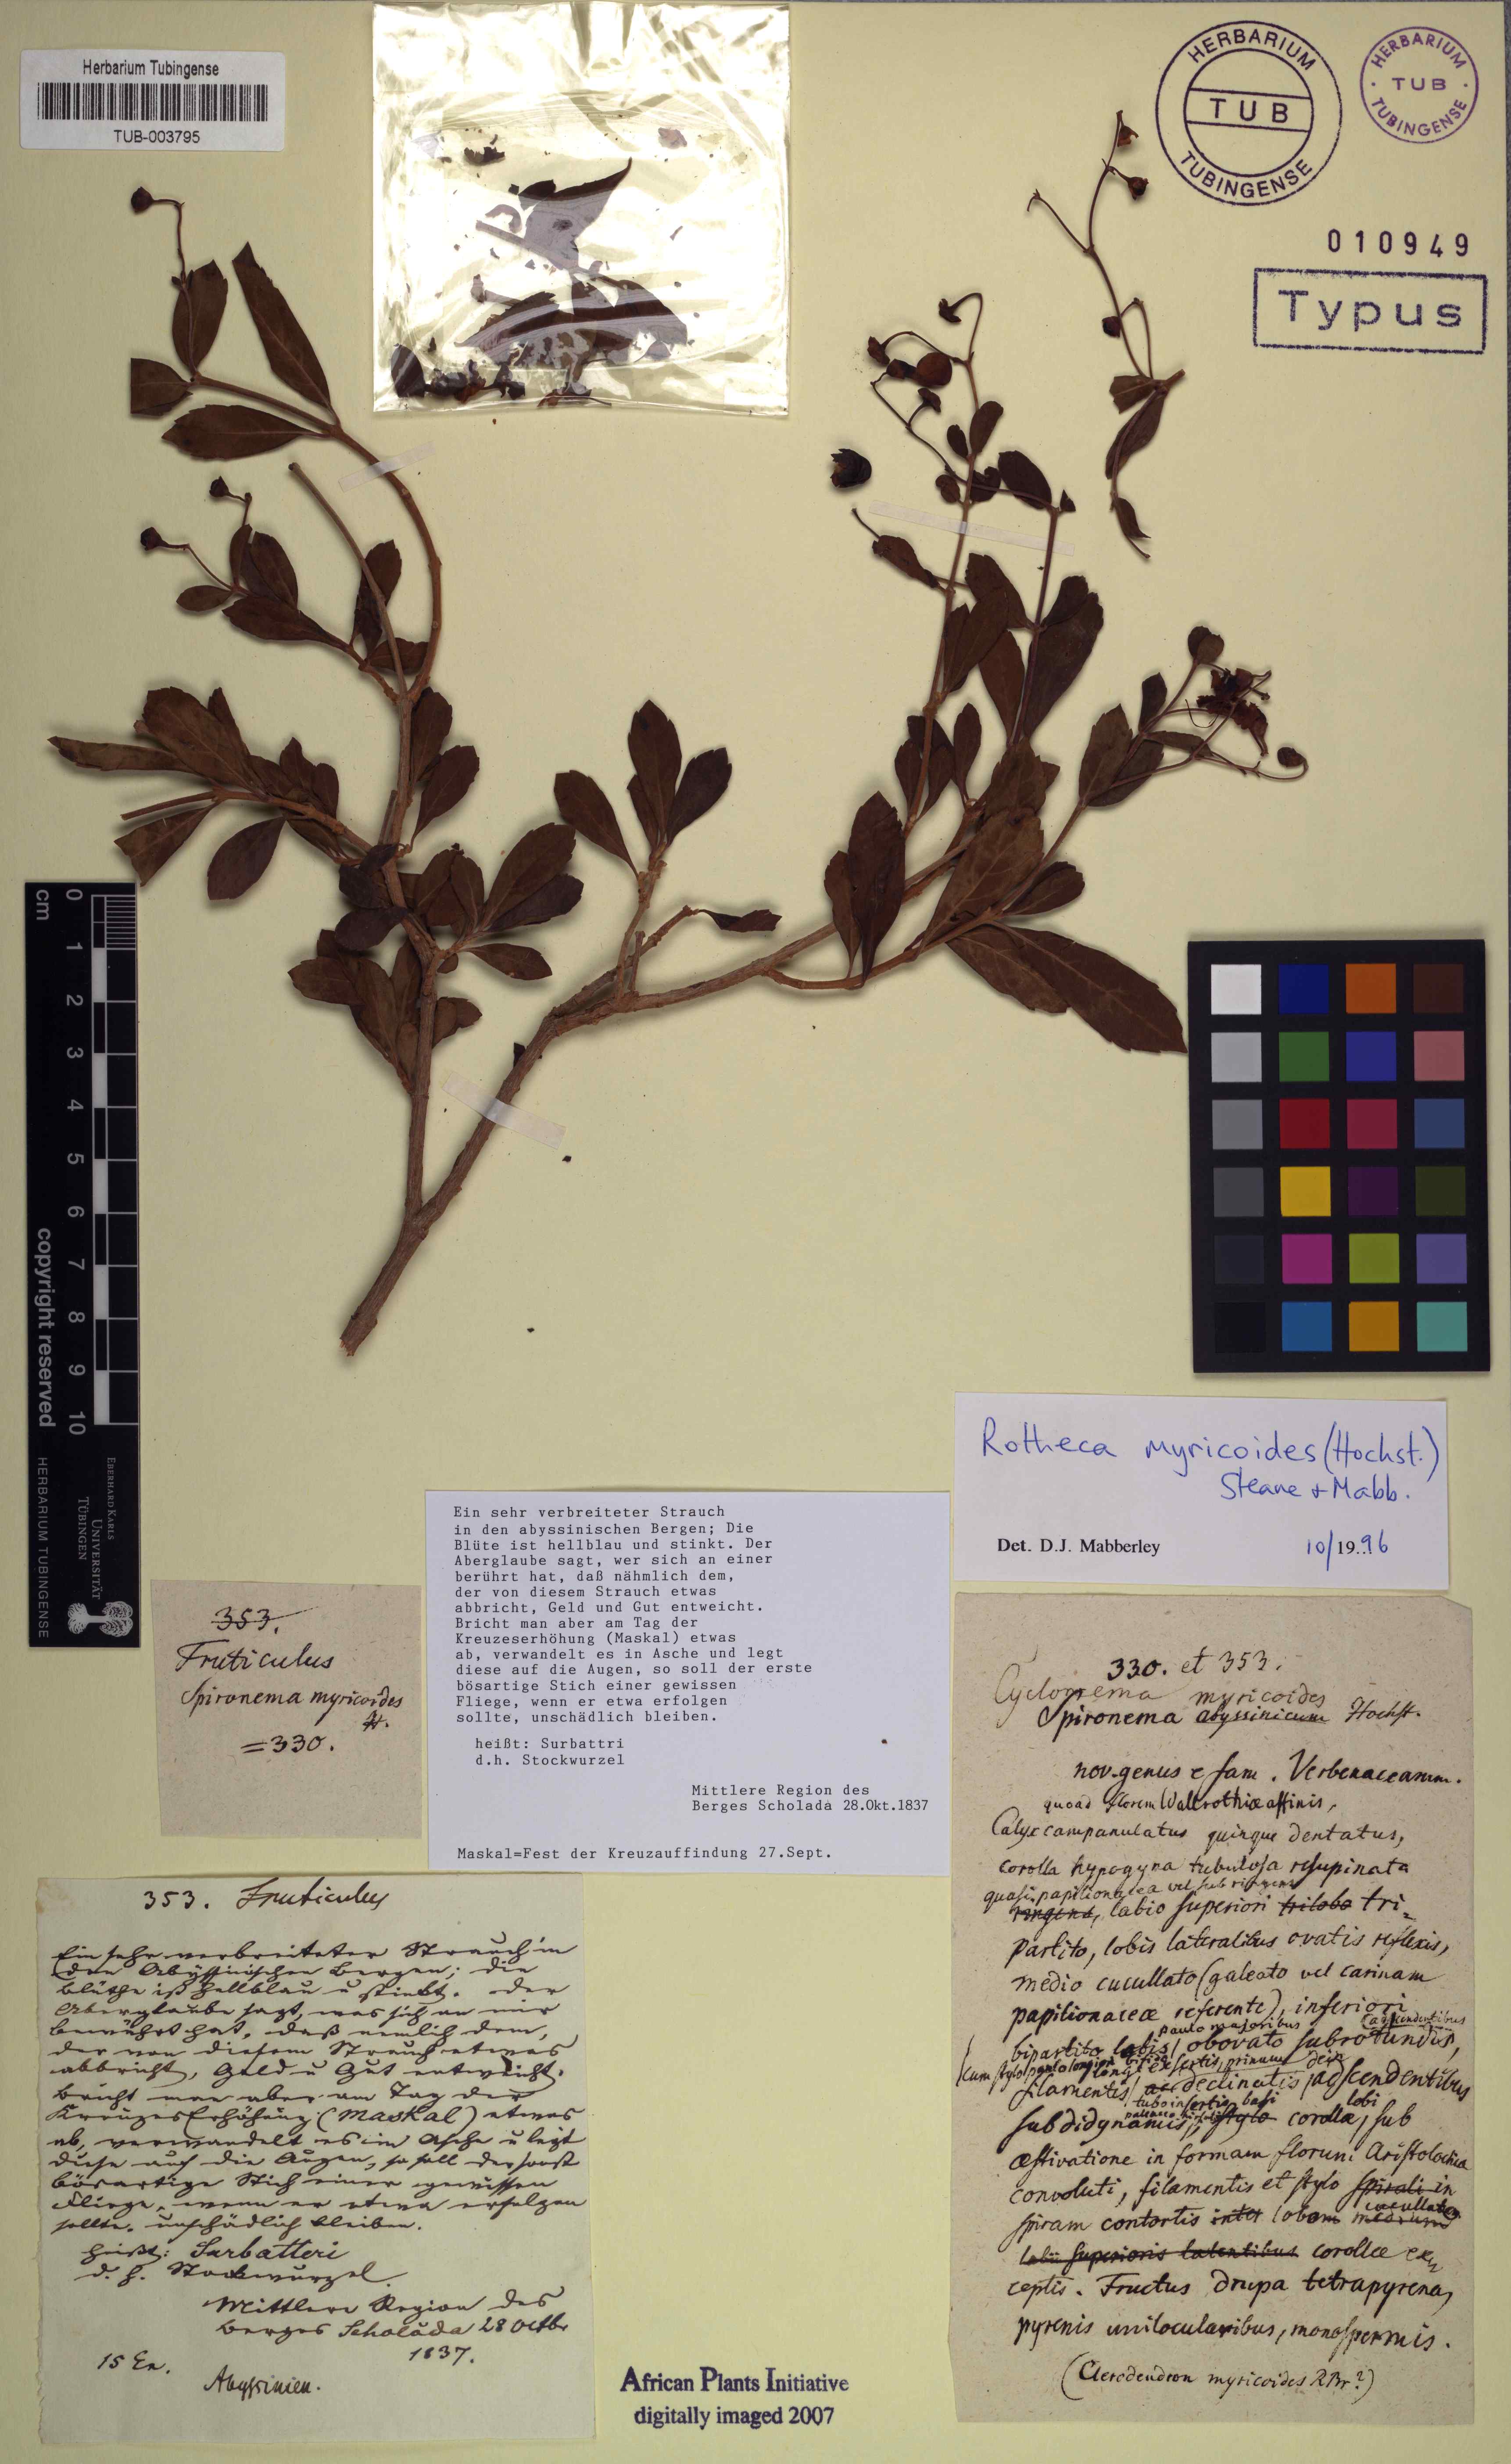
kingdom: Plantae
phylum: Tracheophyta
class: Magnoliopsida
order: Lamiales
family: Lamiaceae
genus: Rotheca
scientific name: Rotheca myricoides
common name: Cats-whiskers
